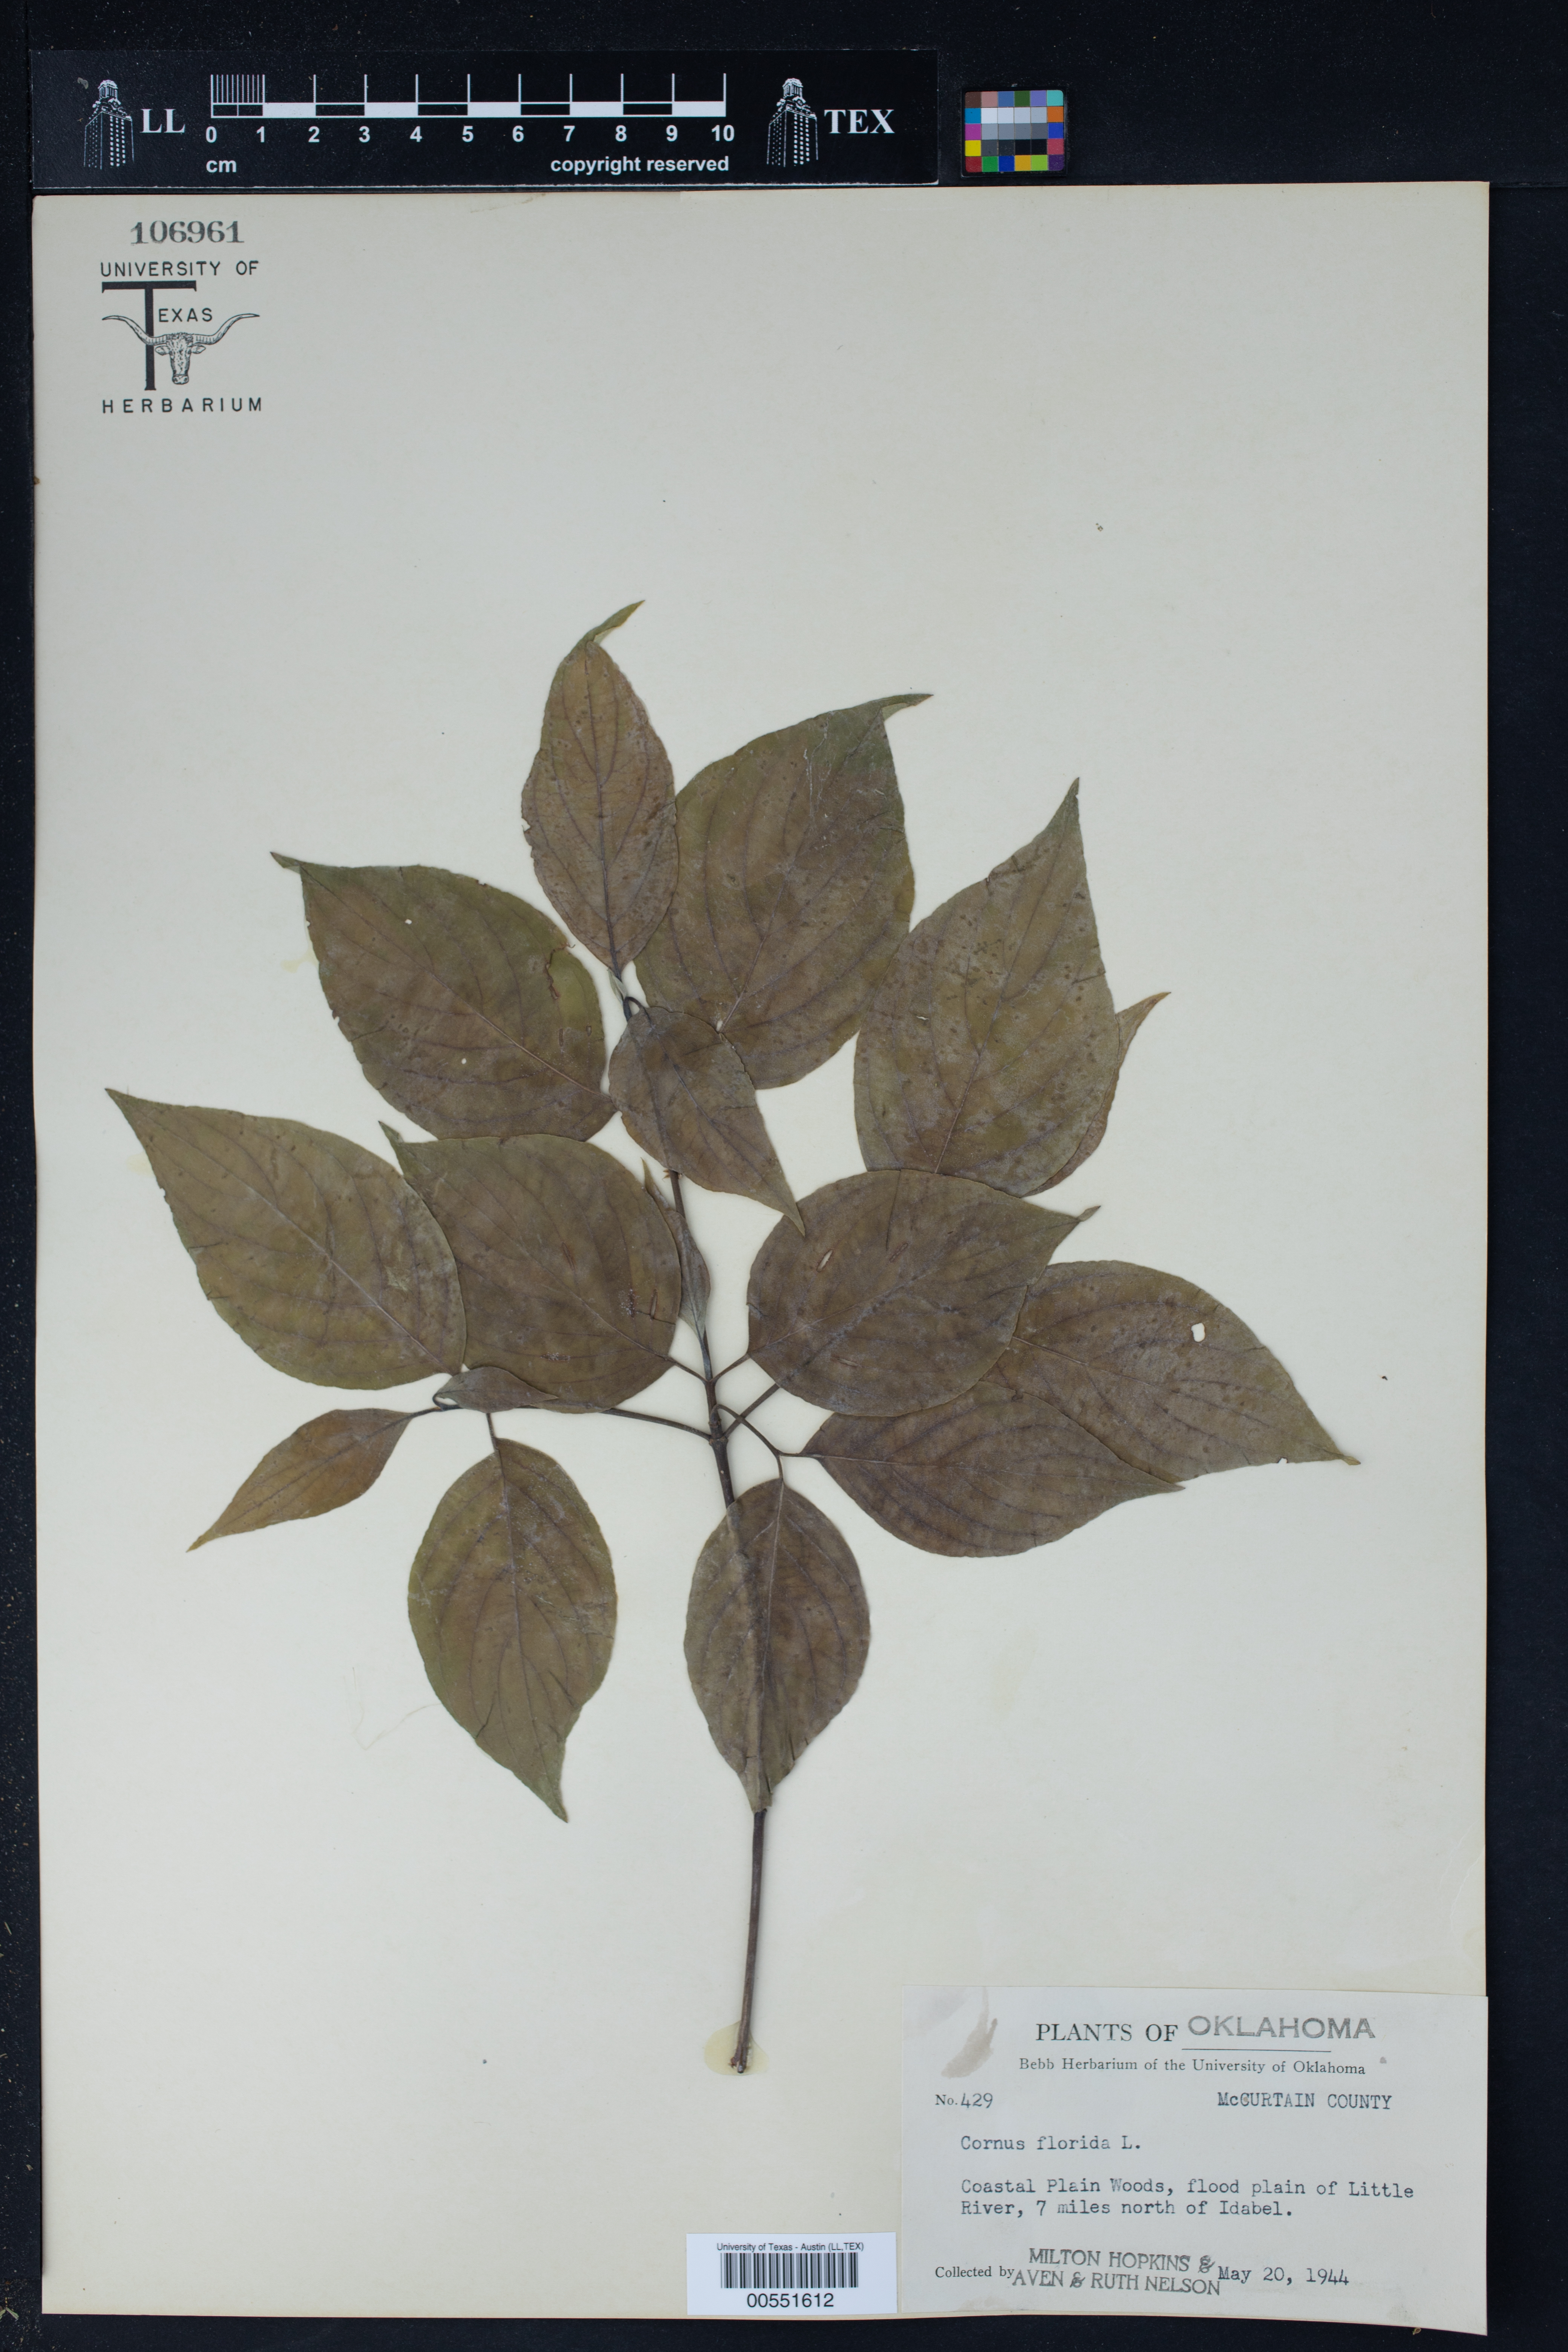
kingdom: Plantae
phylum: Tracheophyta
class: Magnoliopsida
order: Cornales
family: Cornaceae
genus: Cornus
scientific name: Cornus florida
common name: Flowering dogwood
